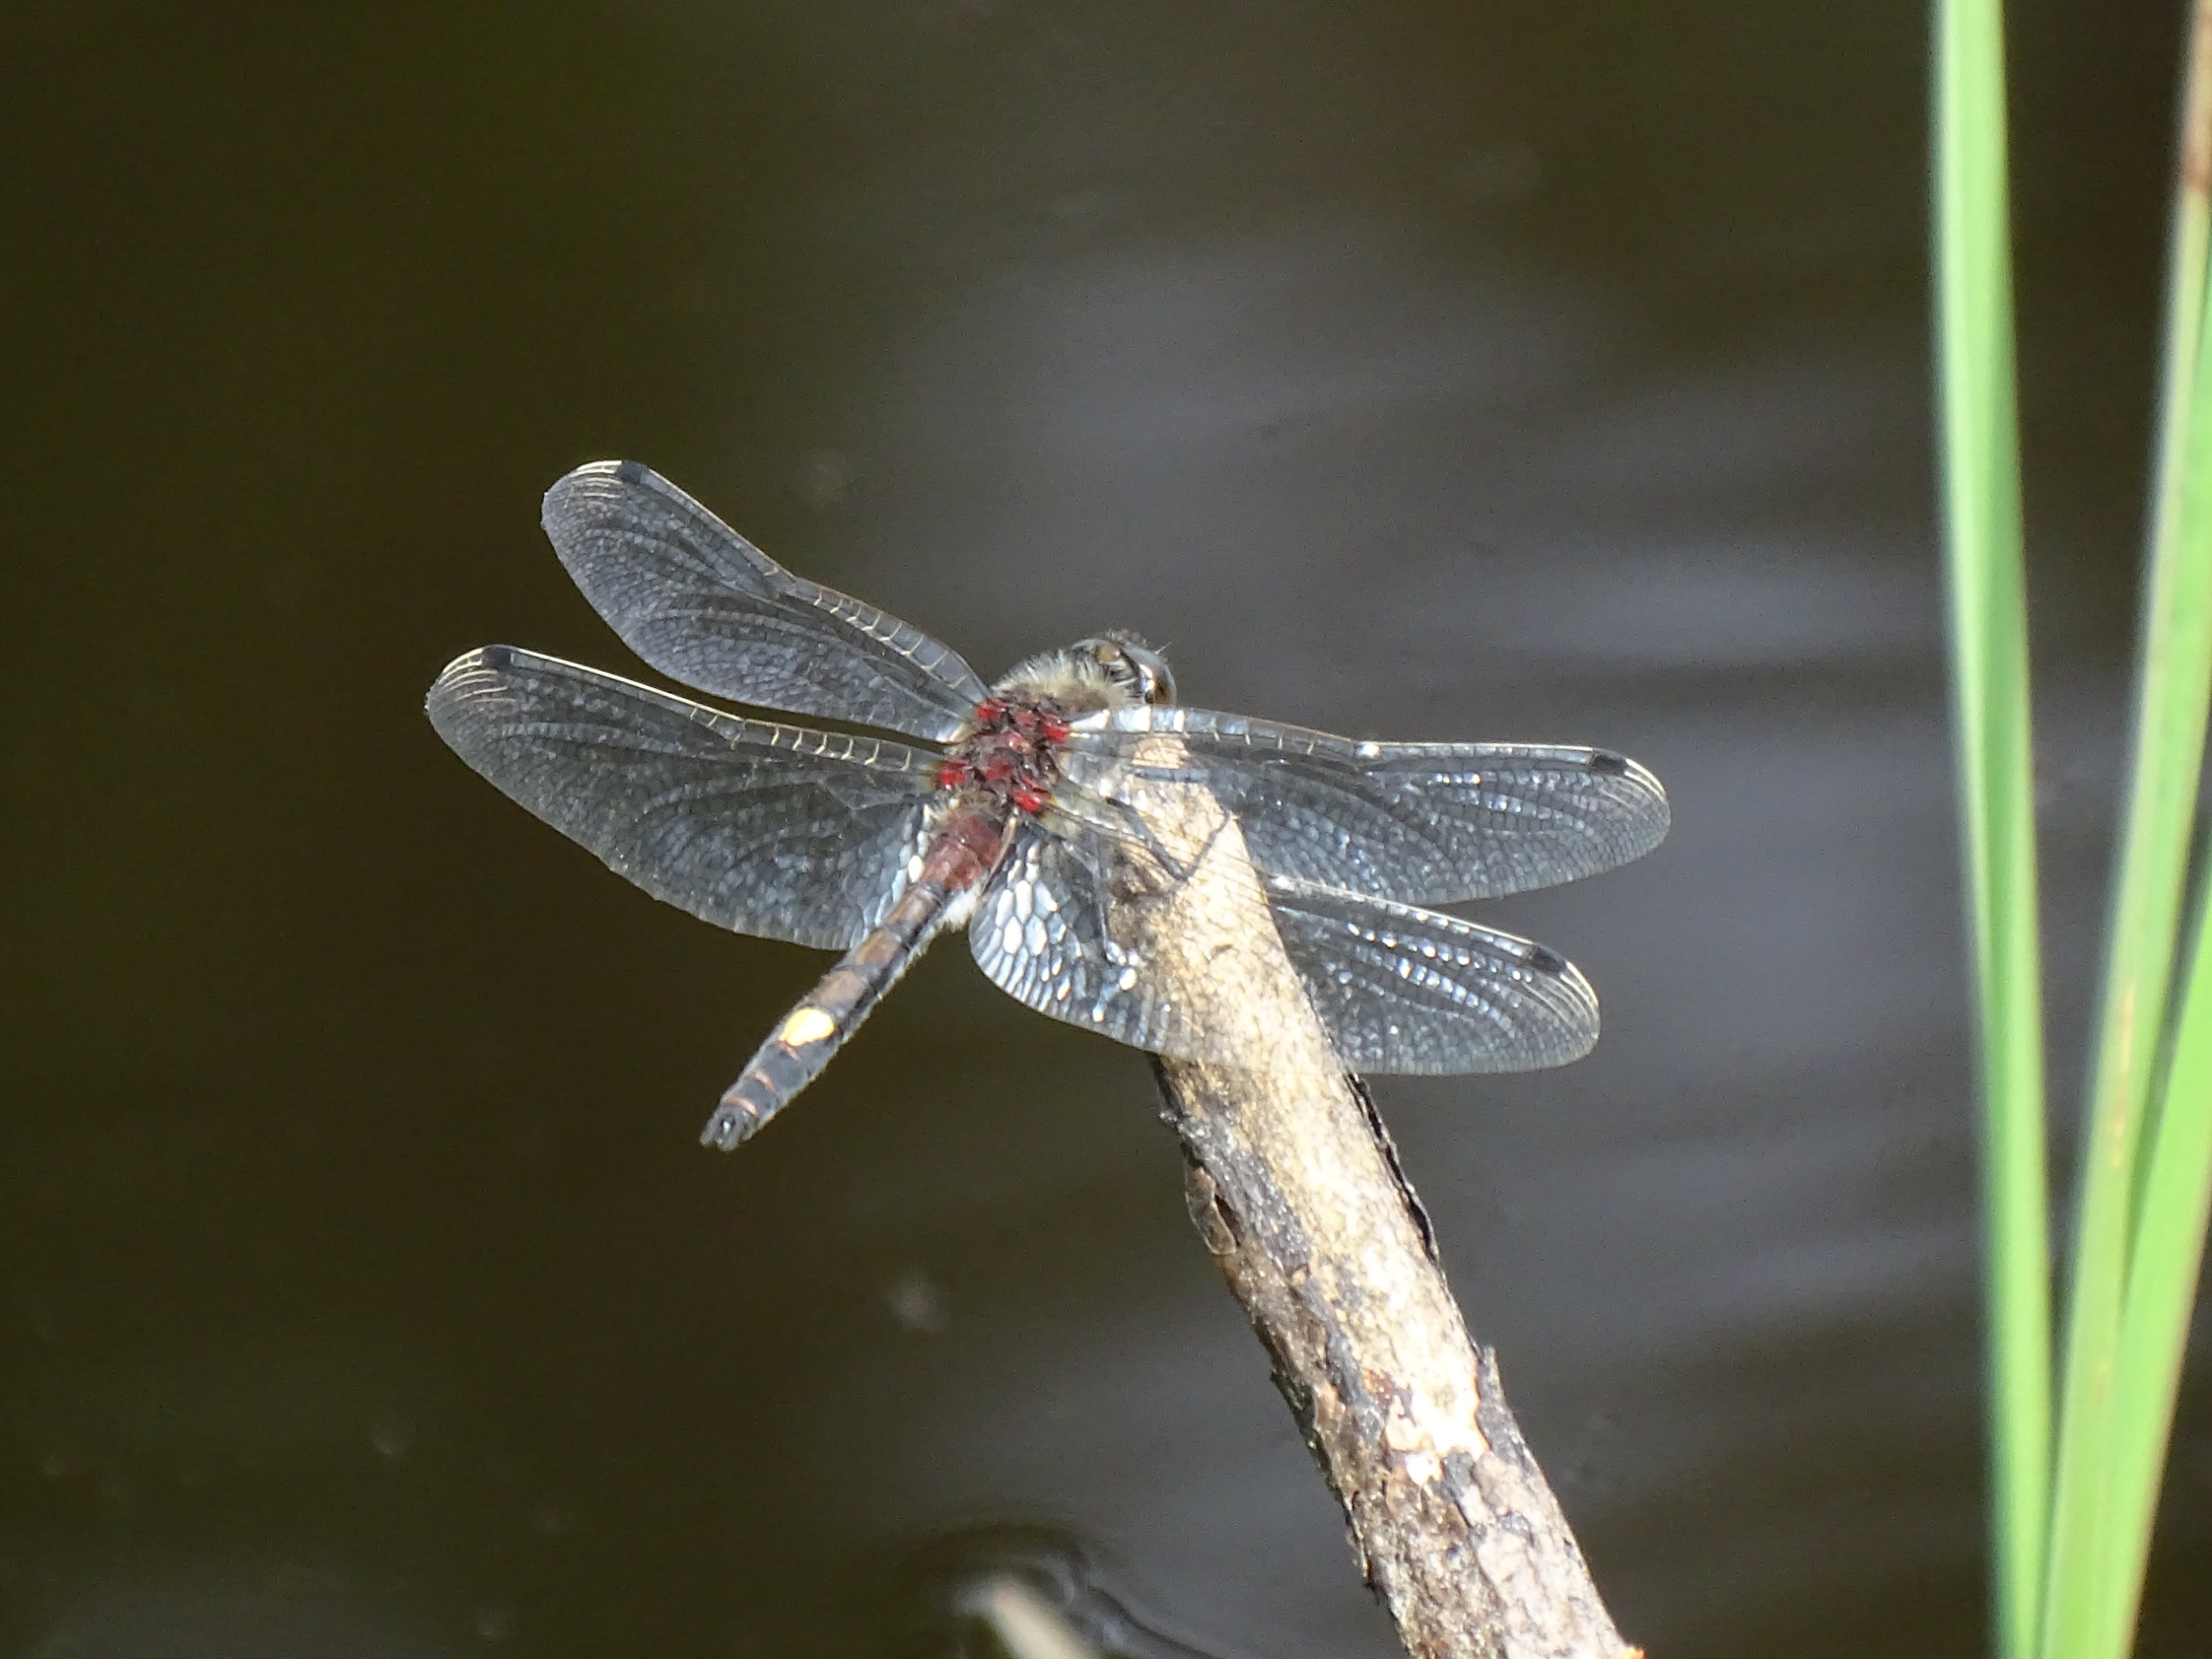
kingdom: Animalia
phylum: Arthropoda
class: Insecta
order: Odonata
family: Libellulidae
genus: Leucorrhinia
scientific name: Leucorrhinia pectoralis
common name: Stor kærguldsmed
